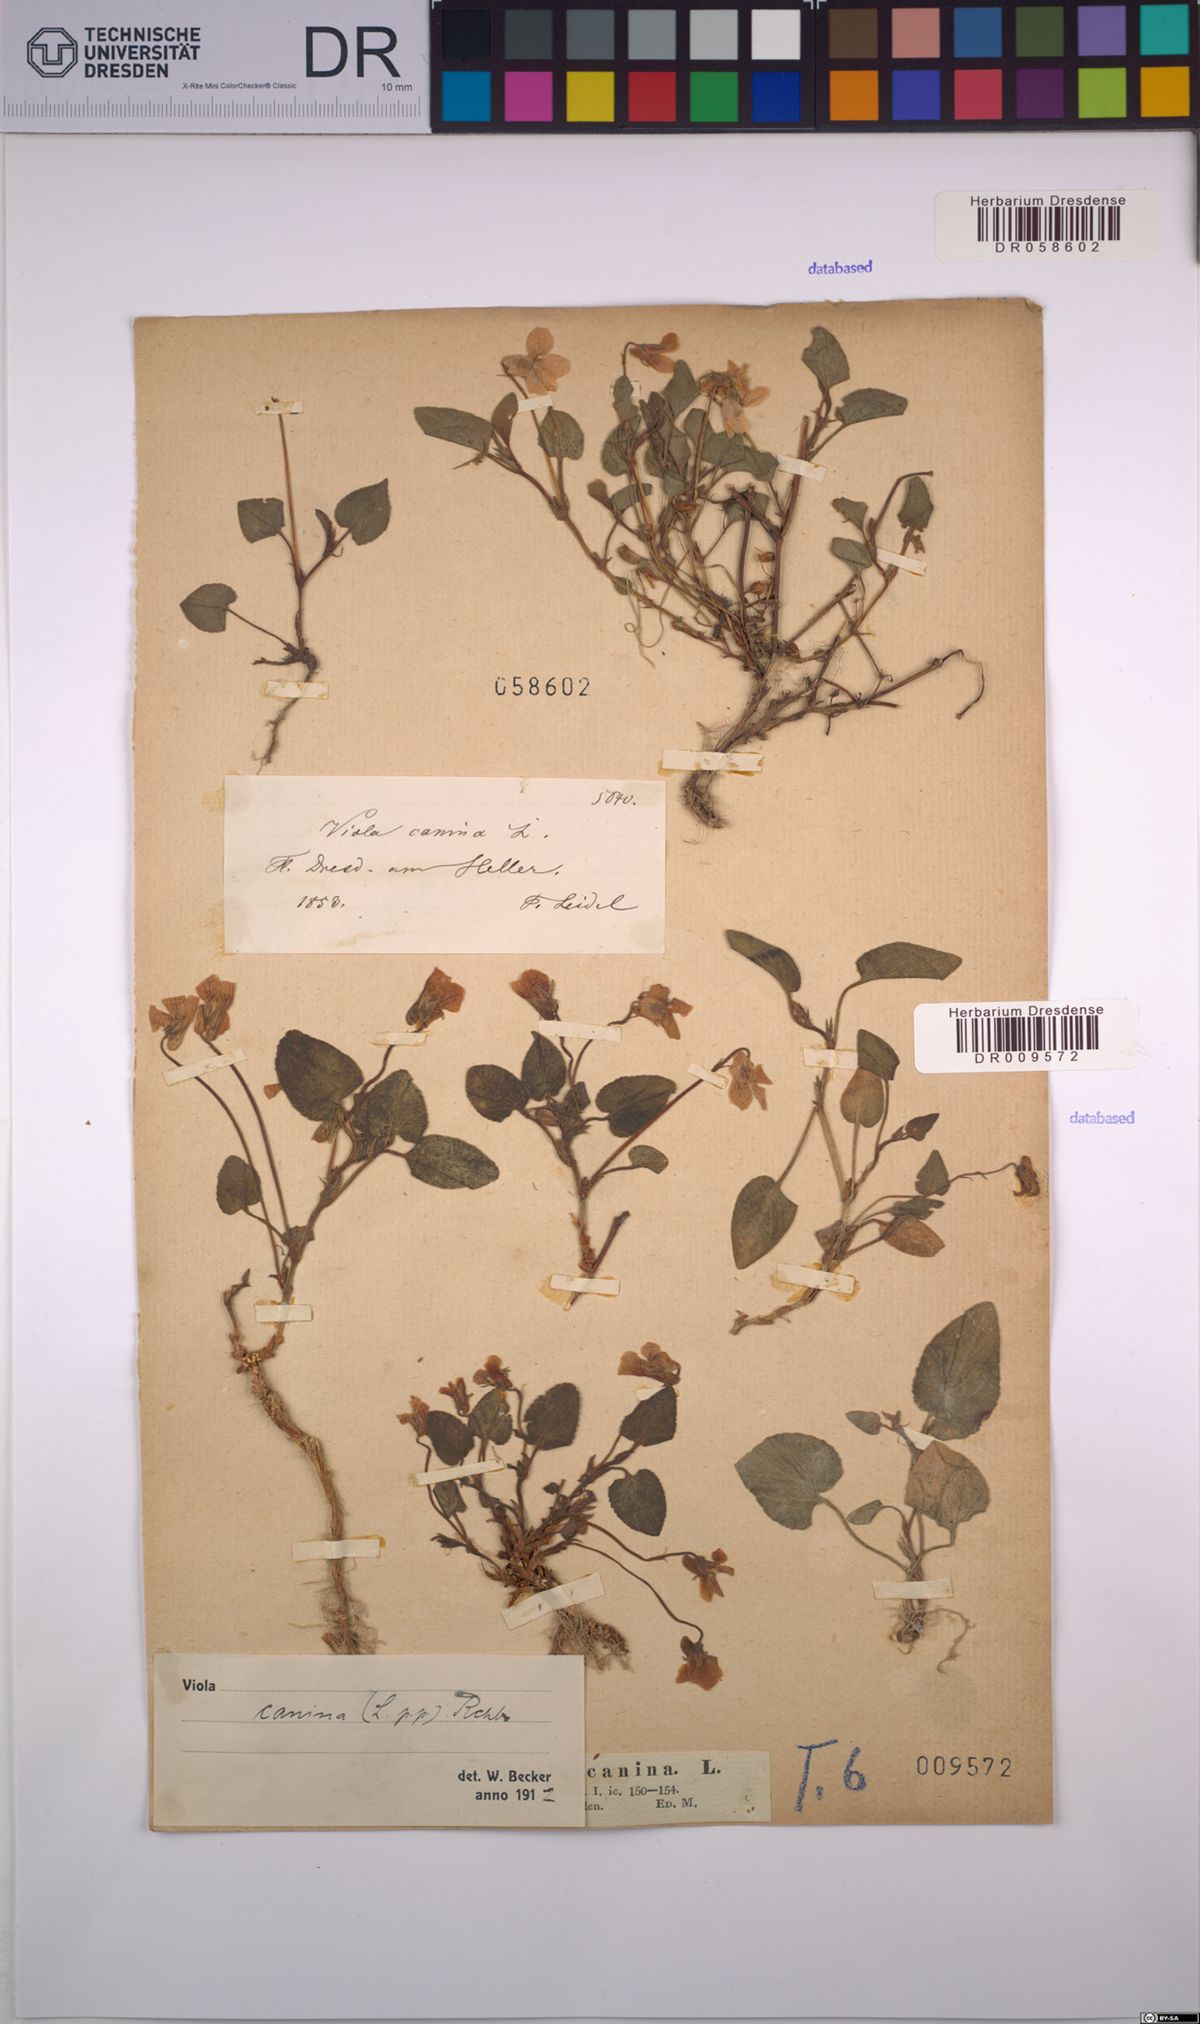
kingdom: Plantae
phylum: Tracheophyta
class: Magnoliopsida
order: Malpighiales
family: Violaceae
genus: Viola
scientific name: Viola canina
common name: Heath dog-violet
